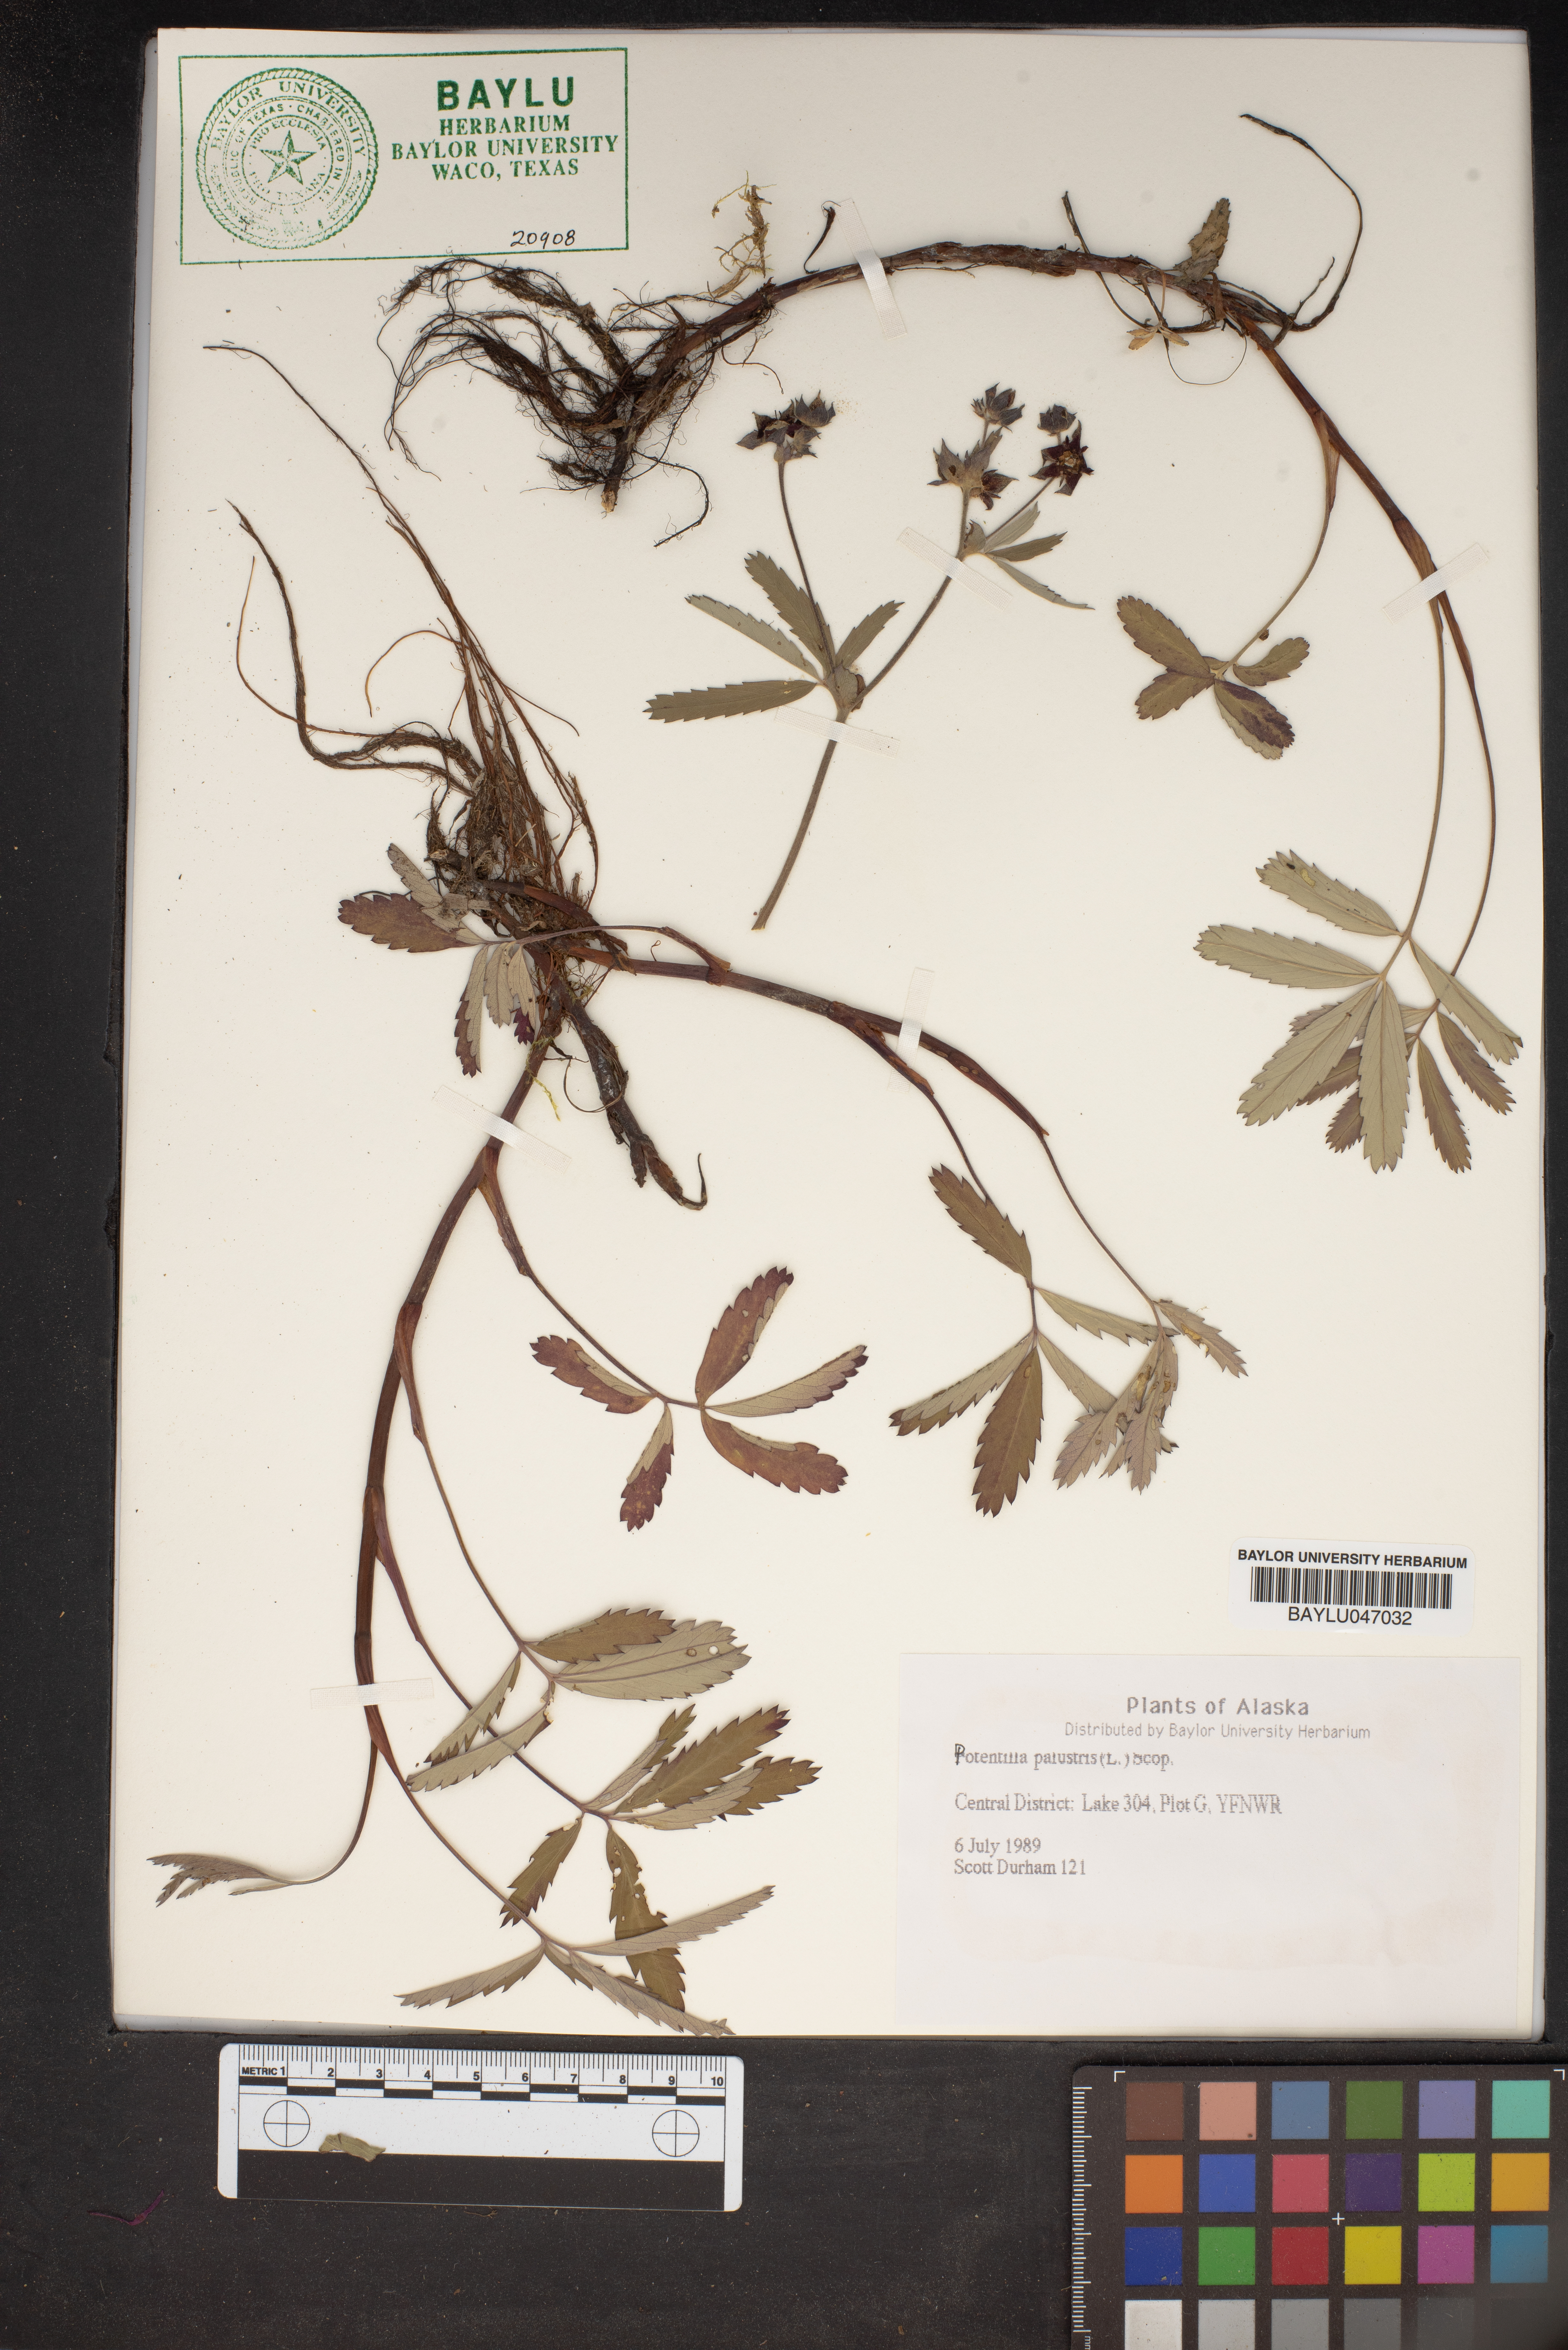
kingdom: Plantae
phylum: Tracheophyta
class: Magnoliopsida
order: Rosales
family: Rosaceae
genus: Comarum
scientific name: Comarum palustre
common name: Marsh cinquefoil
